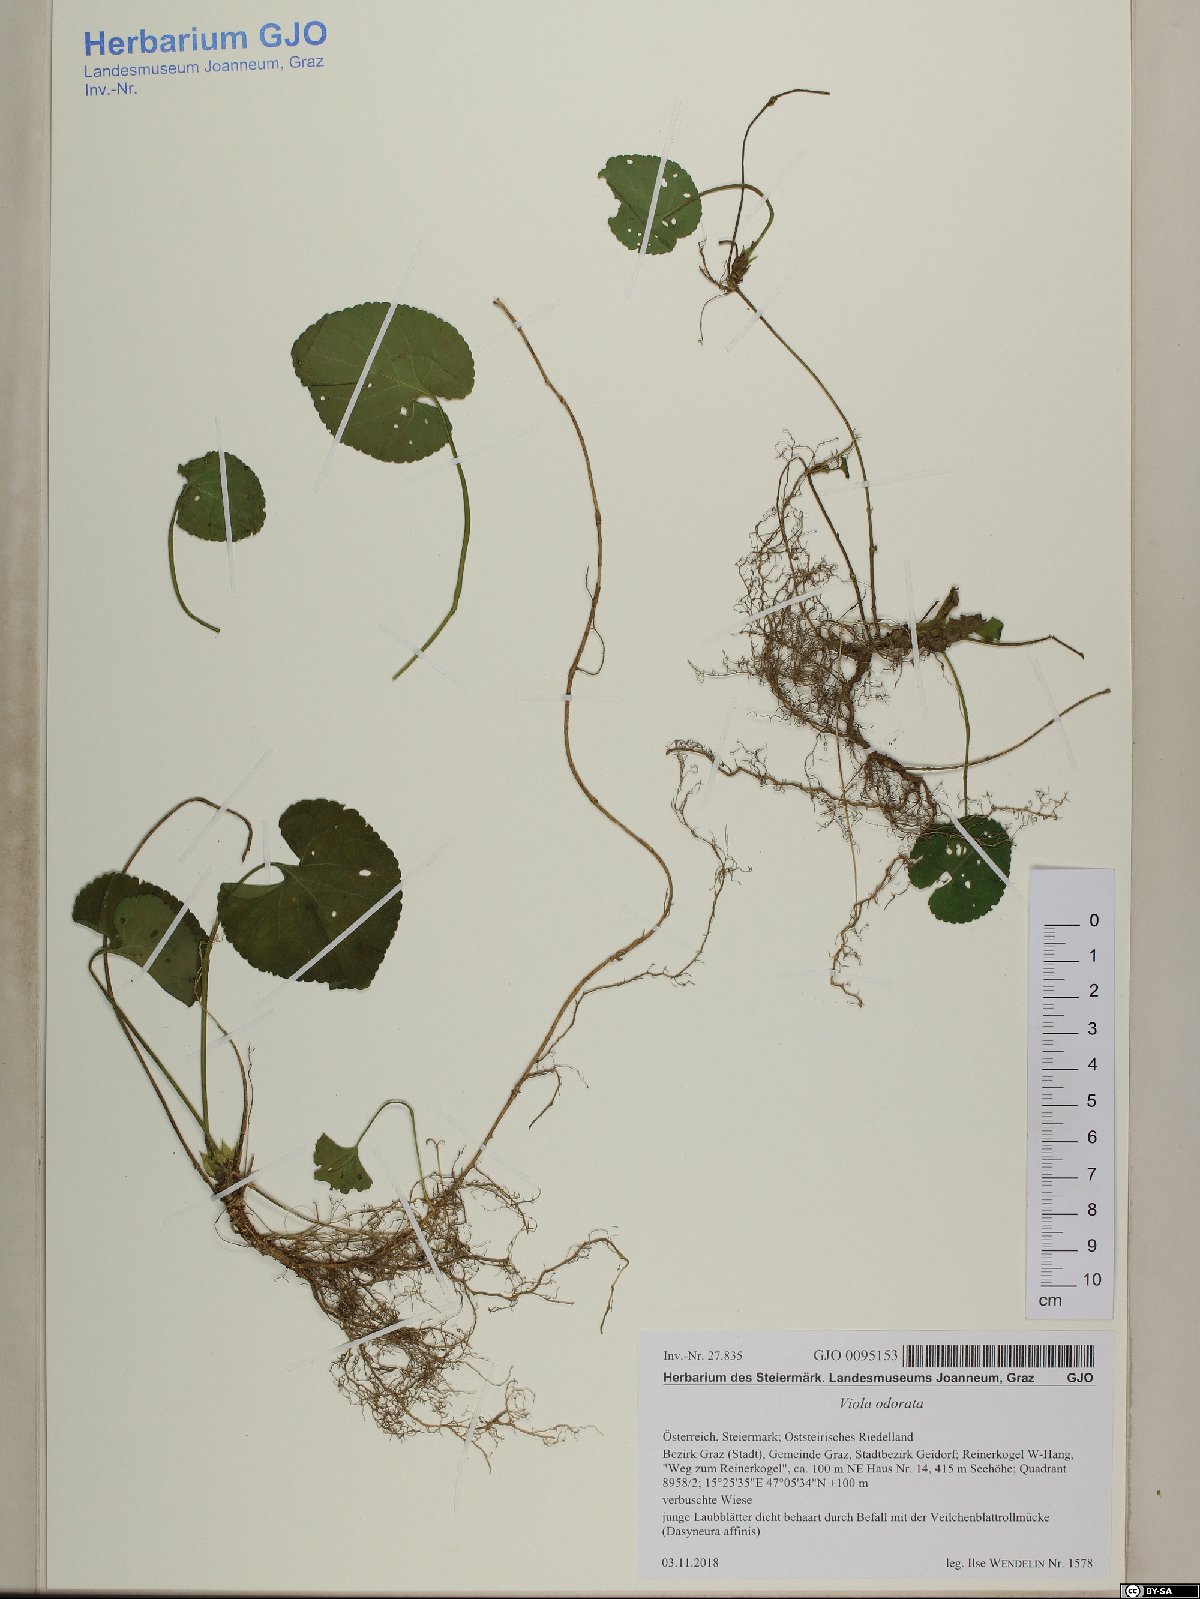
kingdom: Plantae
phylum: Tracheophyta
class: Magnoliopsida
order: Malpighiales
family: Violaceae
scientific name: Violaceae
